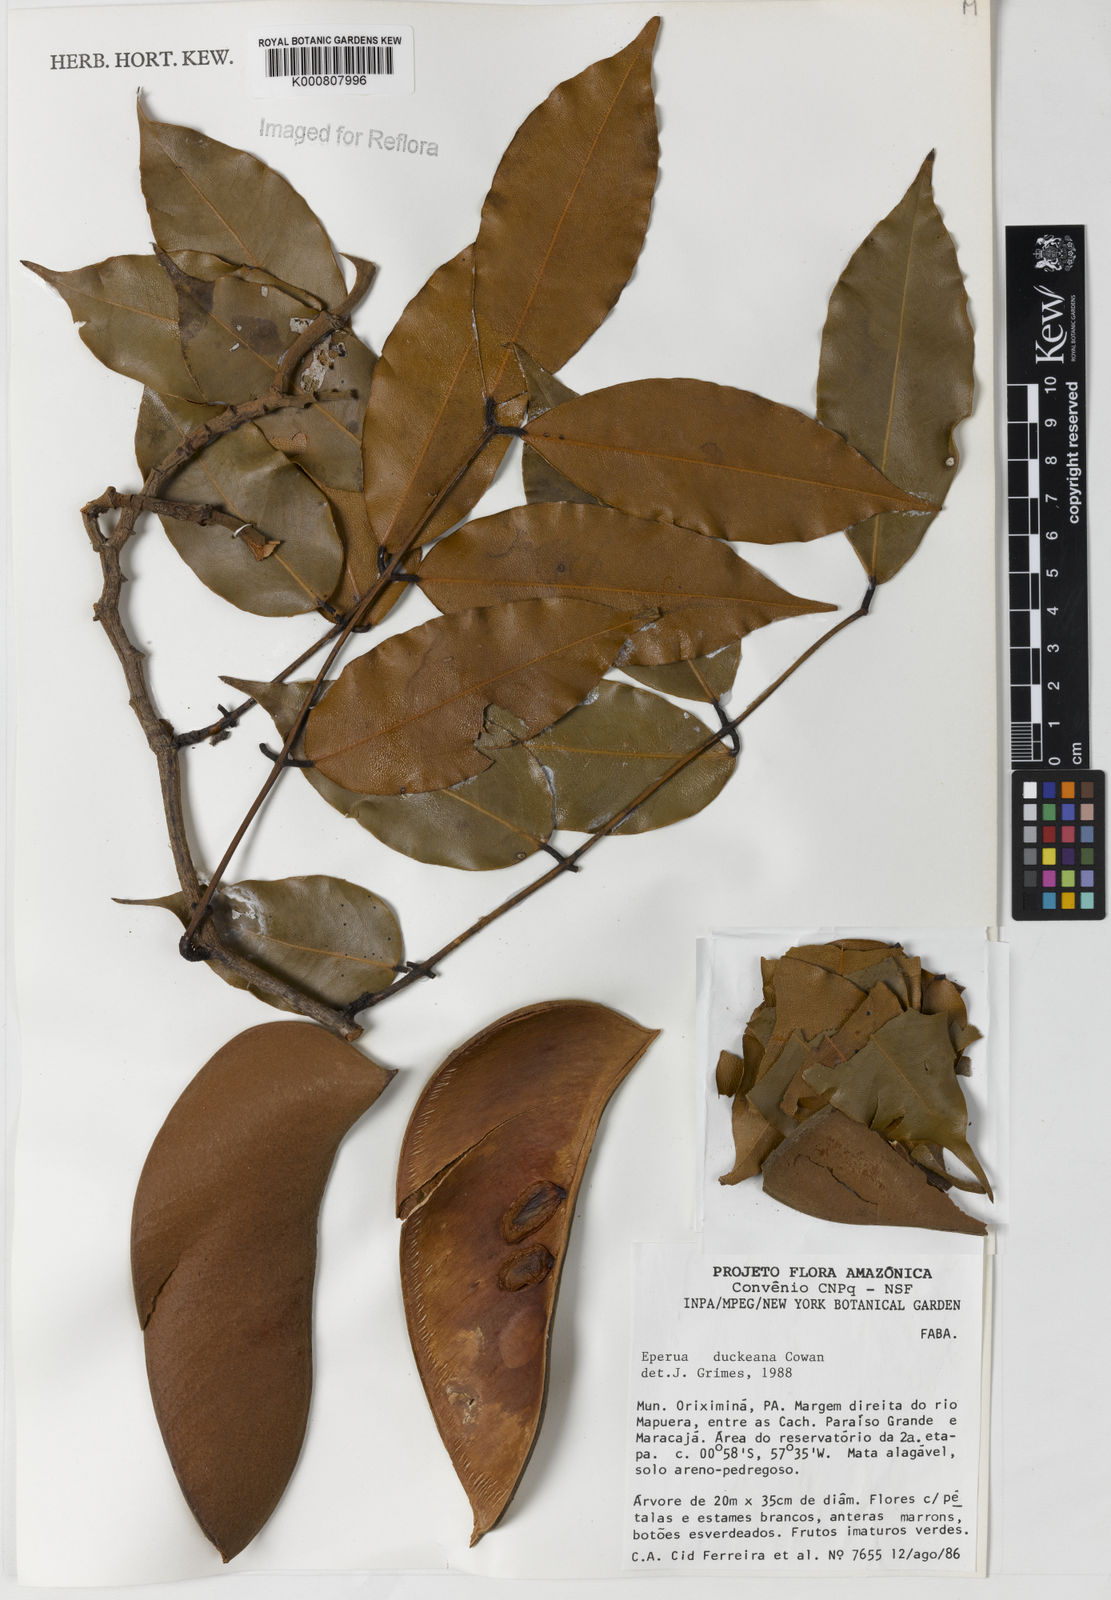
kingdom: Plantae
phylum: Tracheophyta
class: Magnoliopsida
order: Fabales
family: Fabaceae
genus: Eperua
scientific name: Eperua duckeana
